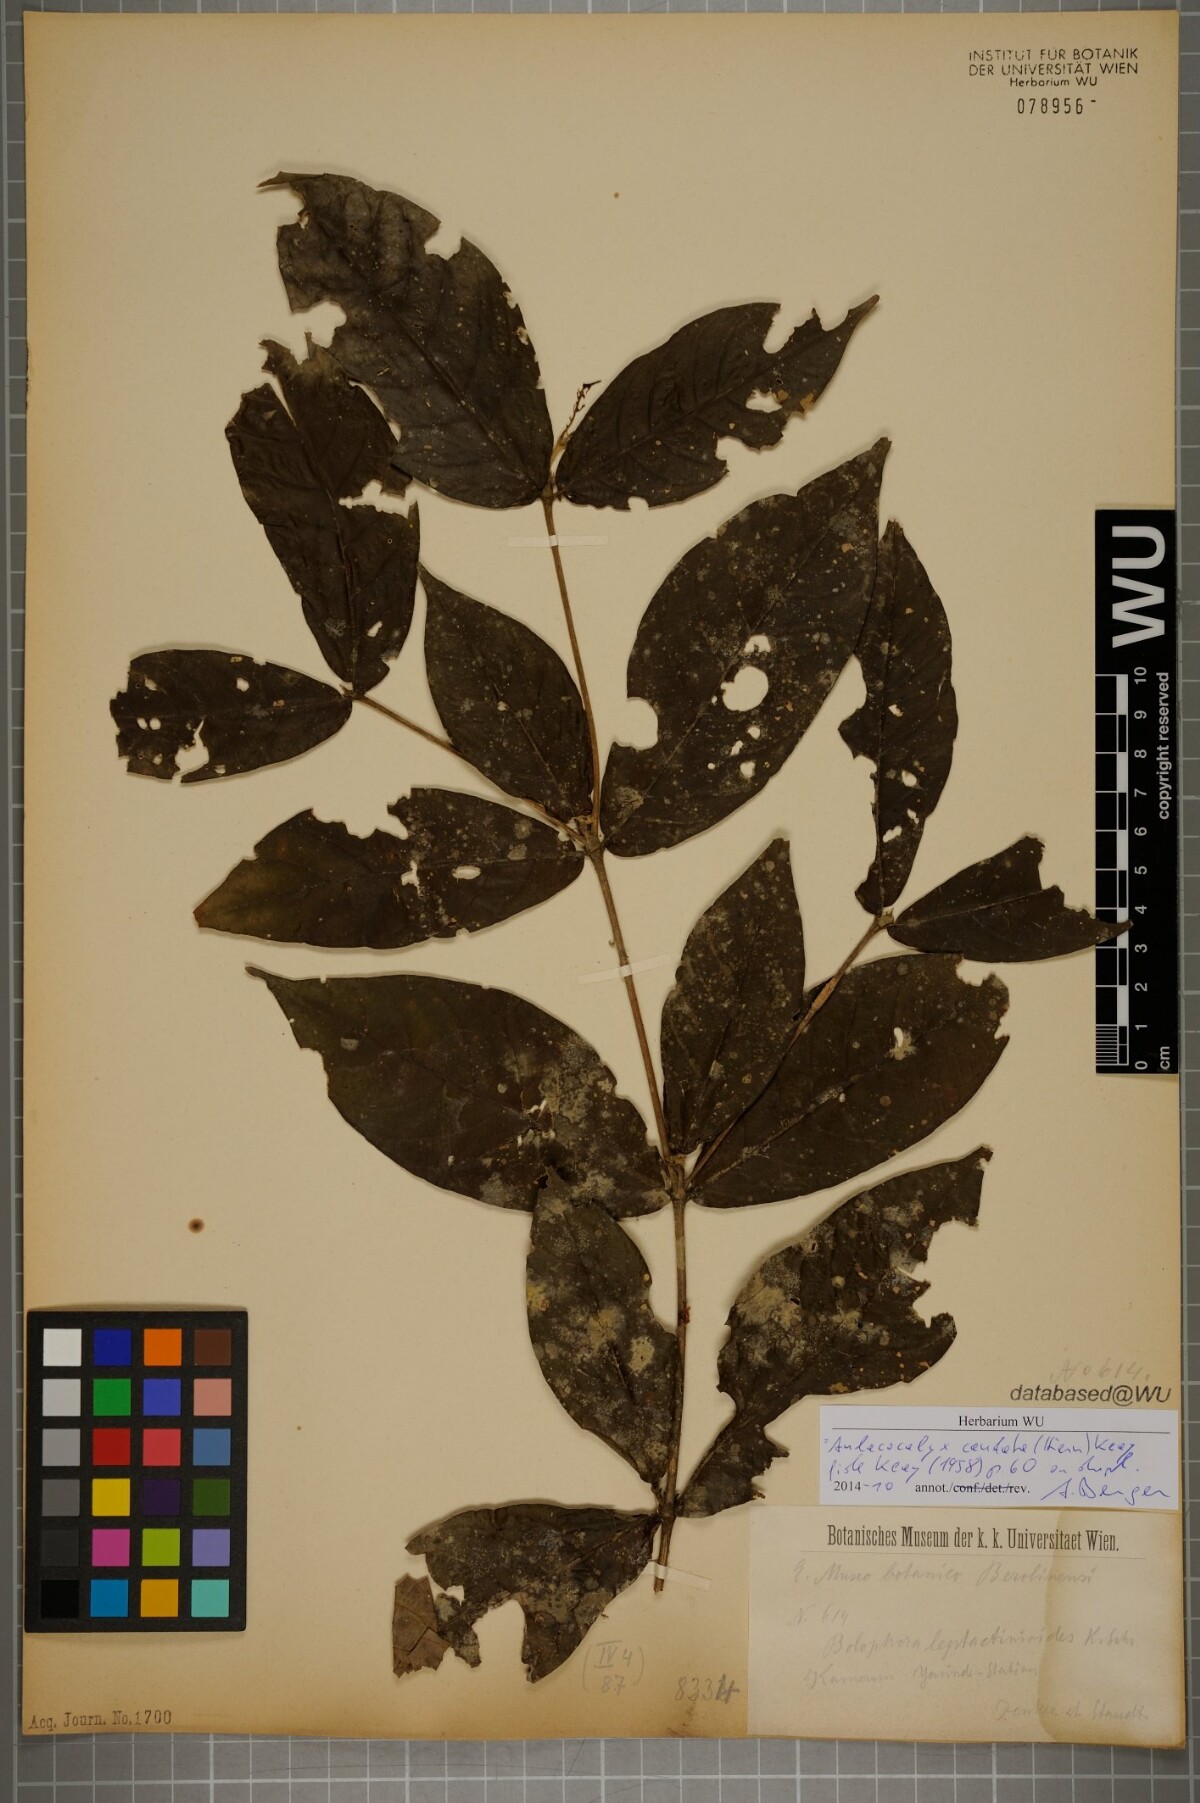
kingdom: Plantae
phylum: Tracheophyta
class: Magnoliopsida
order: Gentianales
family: Rubiaceae
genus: Aulacocalyx
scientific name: Aulacocalyx caudata
